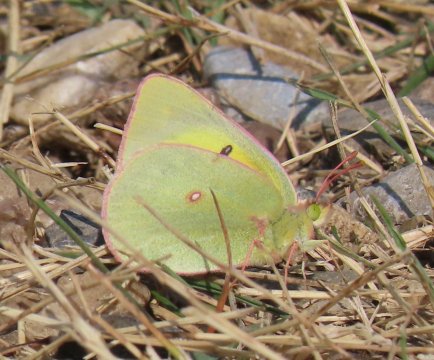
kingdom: Animalia
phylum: Arthropoda
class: Insecta
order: Lepidoptera
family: Pieridae
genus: Colias
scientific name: Colias interior
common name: Pink-edged Sulphur
